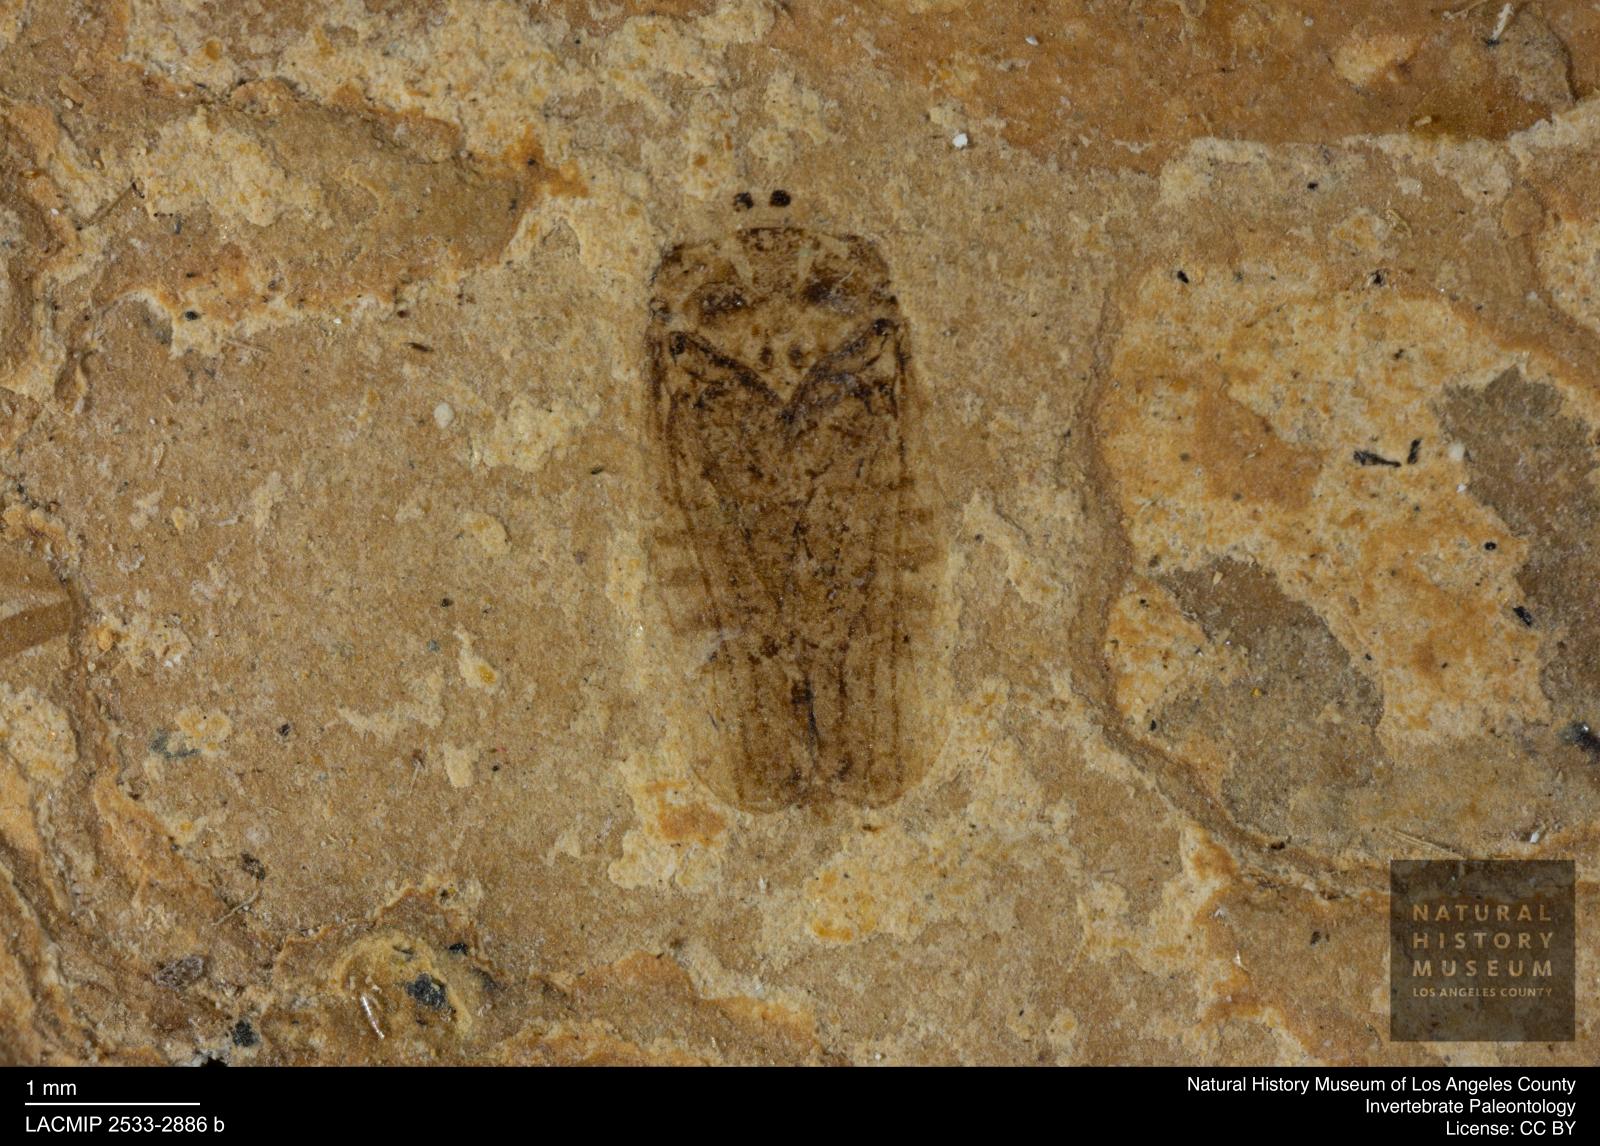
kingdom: Animalia
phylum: Arthropoda
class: Insecta
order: Hemiptera
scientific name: Hemiptera
